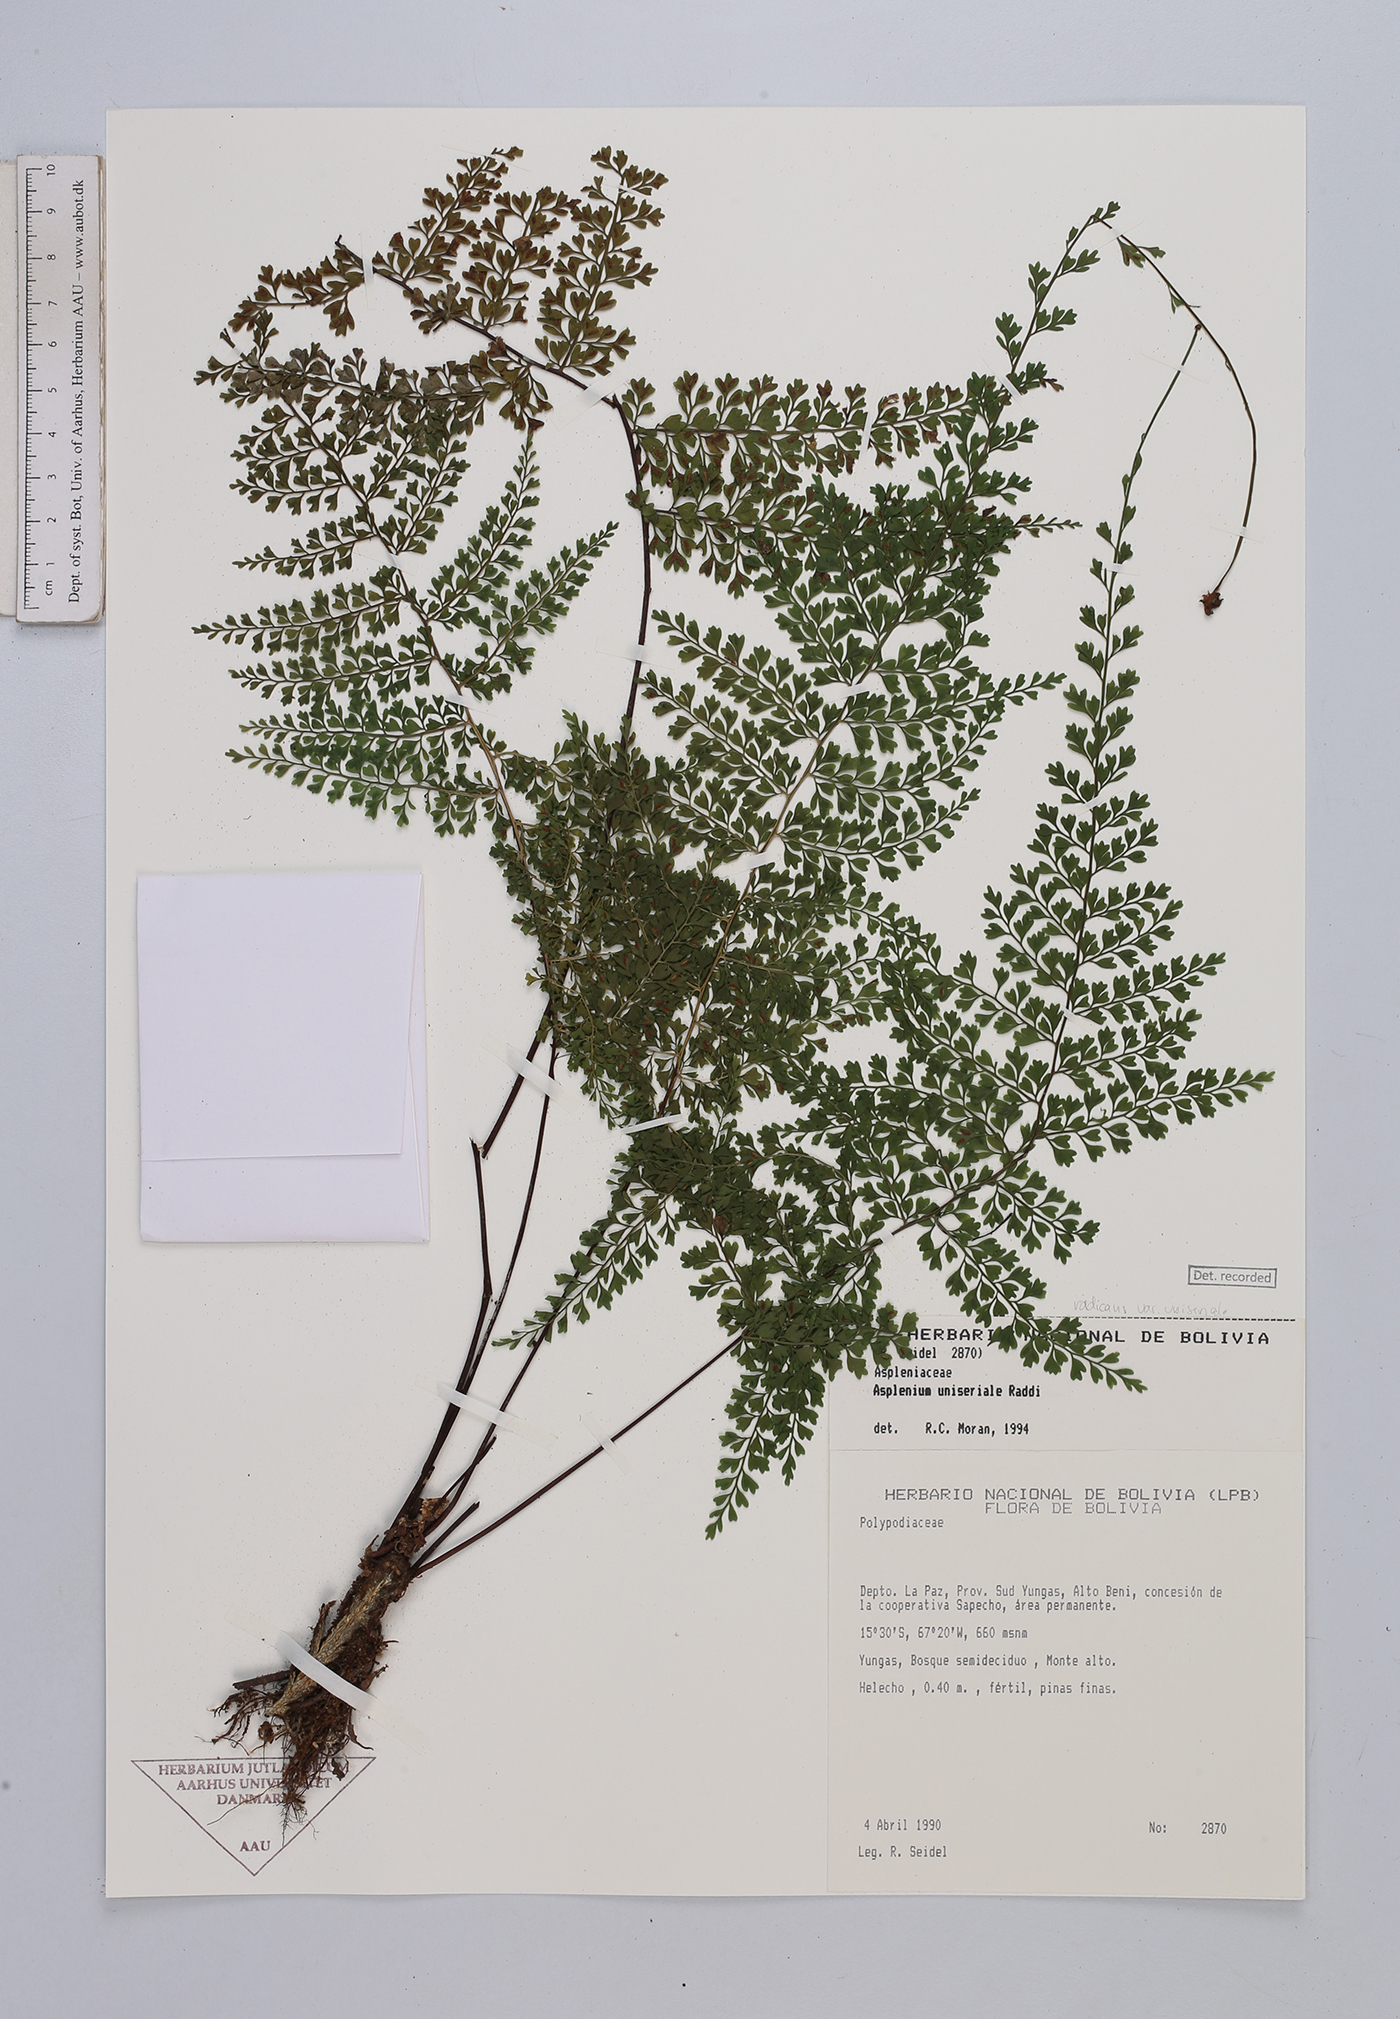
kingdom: Plantae
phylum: Tracheophyta
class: Polypodiopsida
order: Polypodiales
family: Aspleniaceae
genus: Asplenium
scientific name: Asplenium uniseriale
